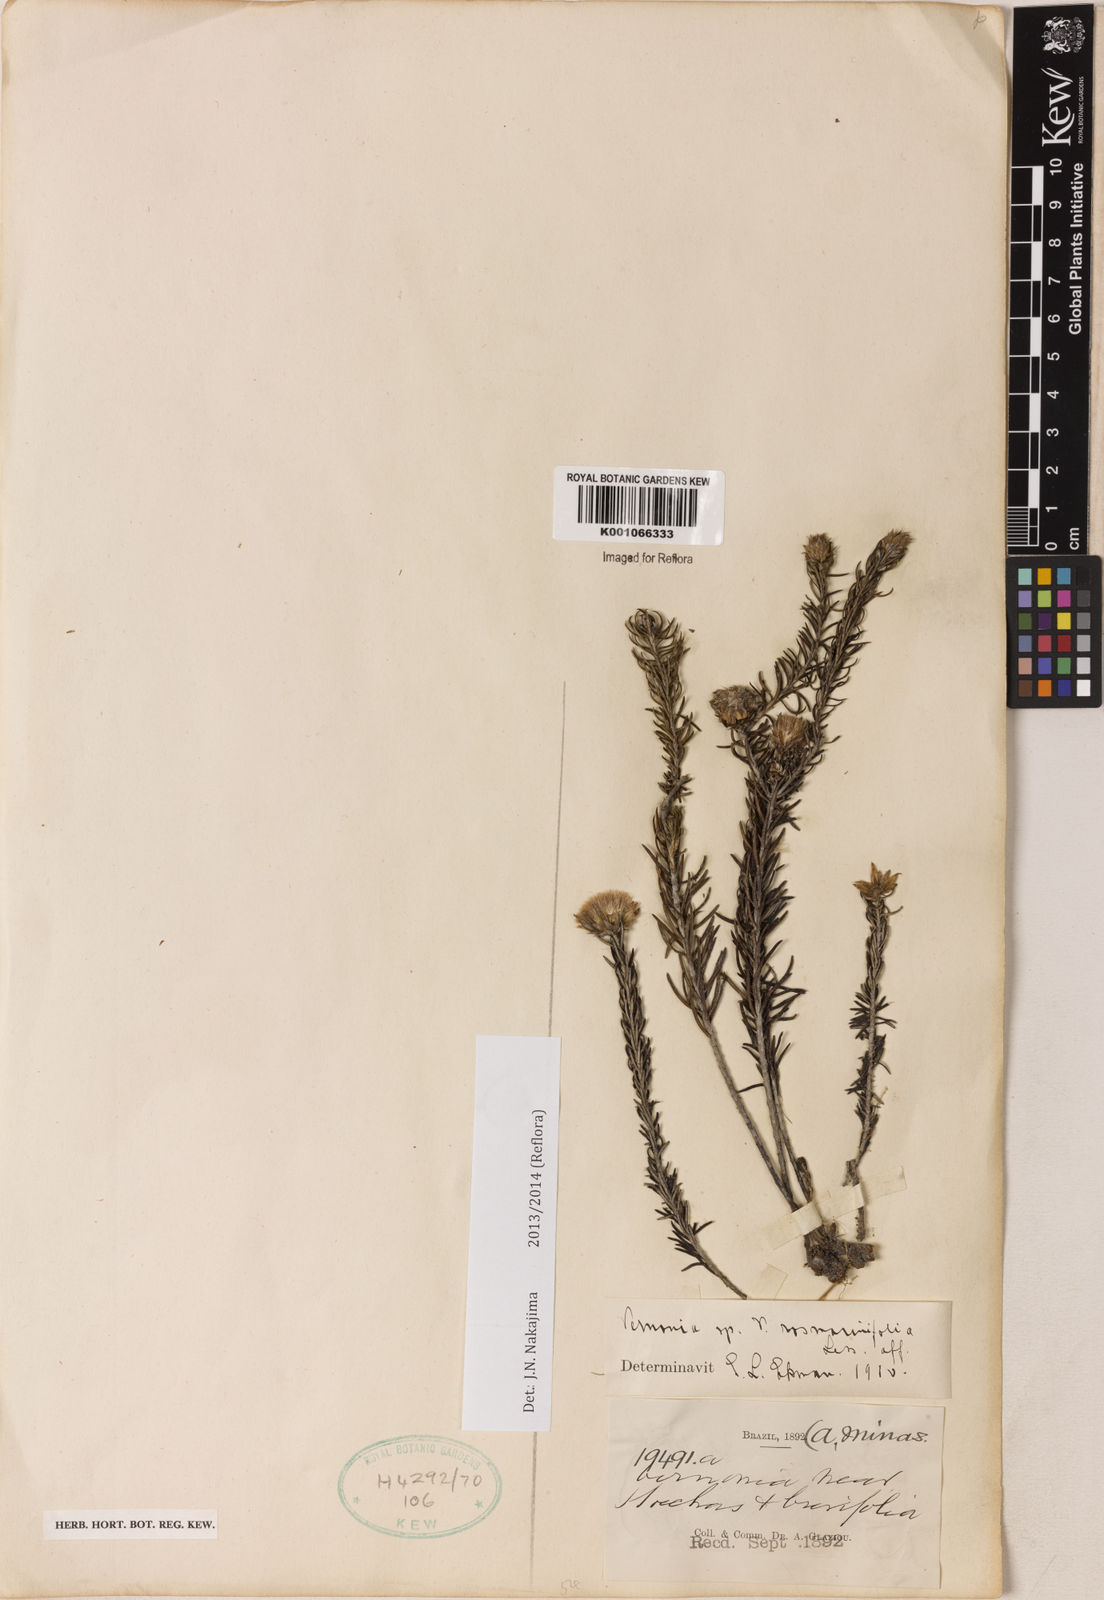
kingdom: Plantae
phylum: Tracheophyta
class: Magnoliopsida
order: Asterales
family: Asteraceae
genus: Lessingianthus
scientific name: Lessingianthus rosmarinifolius
